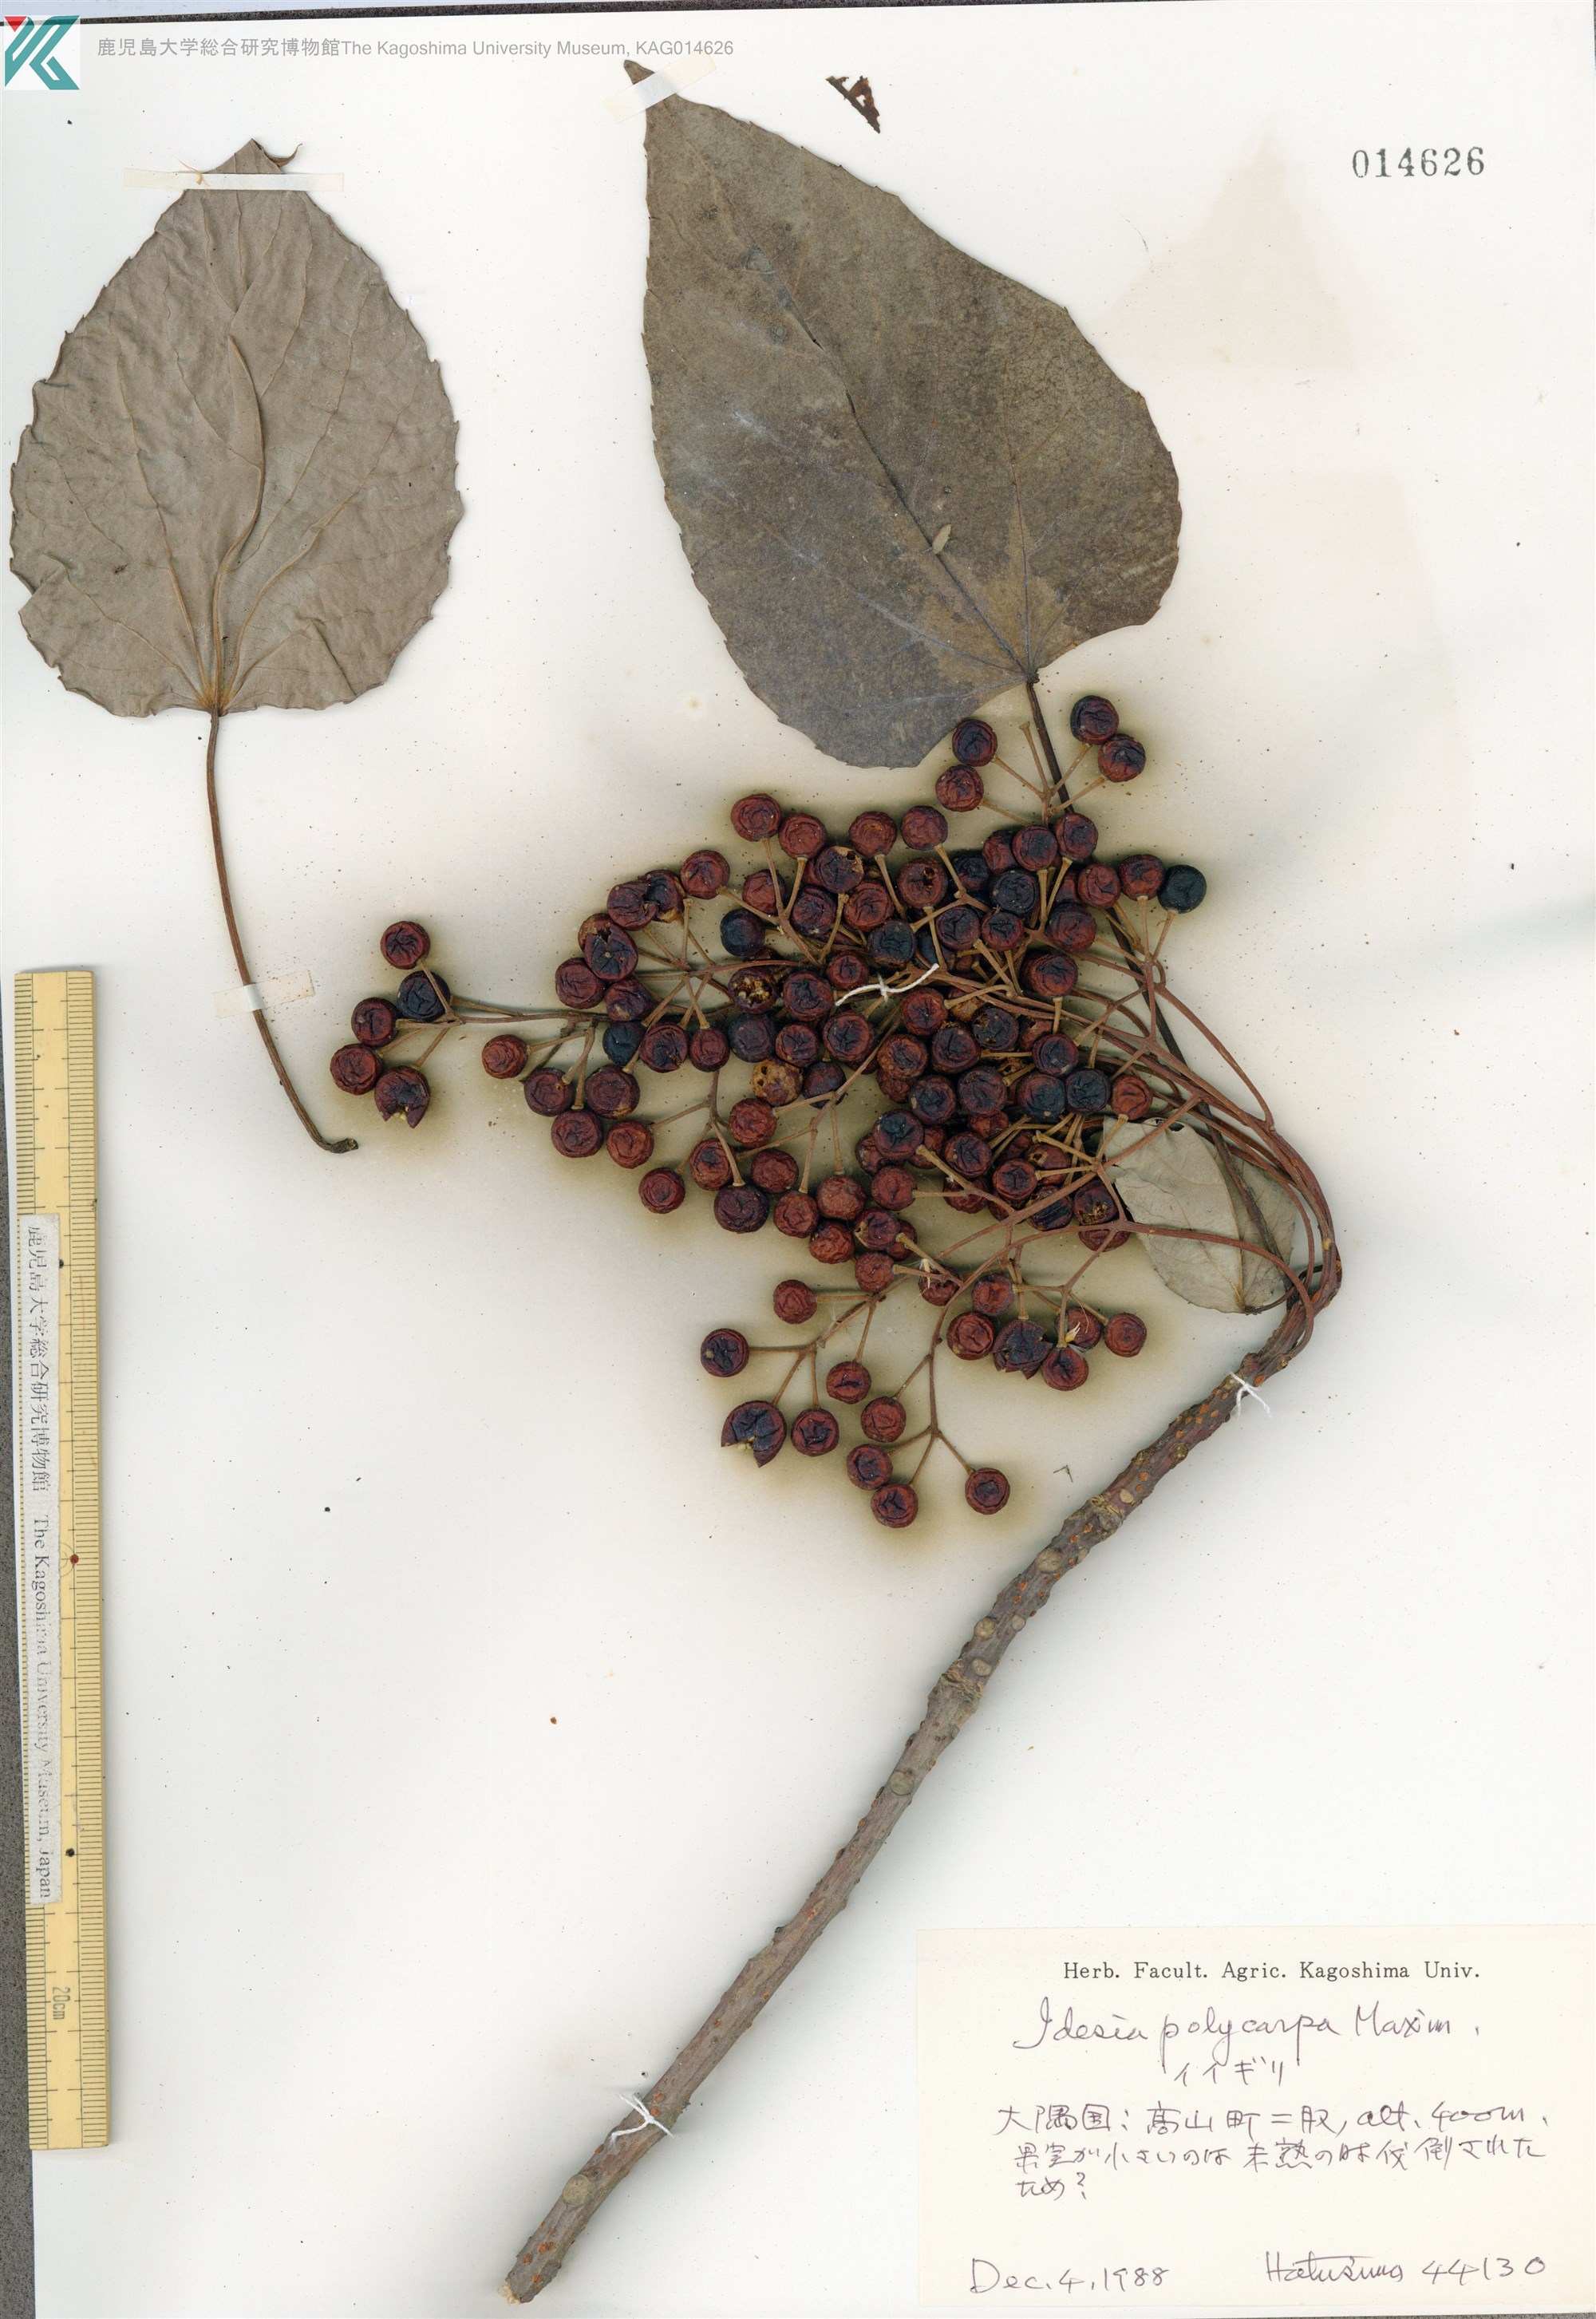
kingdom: Plantae
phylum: Tracheophyta
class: Magnoliopsida
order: Malpighiales
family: Salicaceae
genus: Idesia
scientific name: Idesia polycarpa
